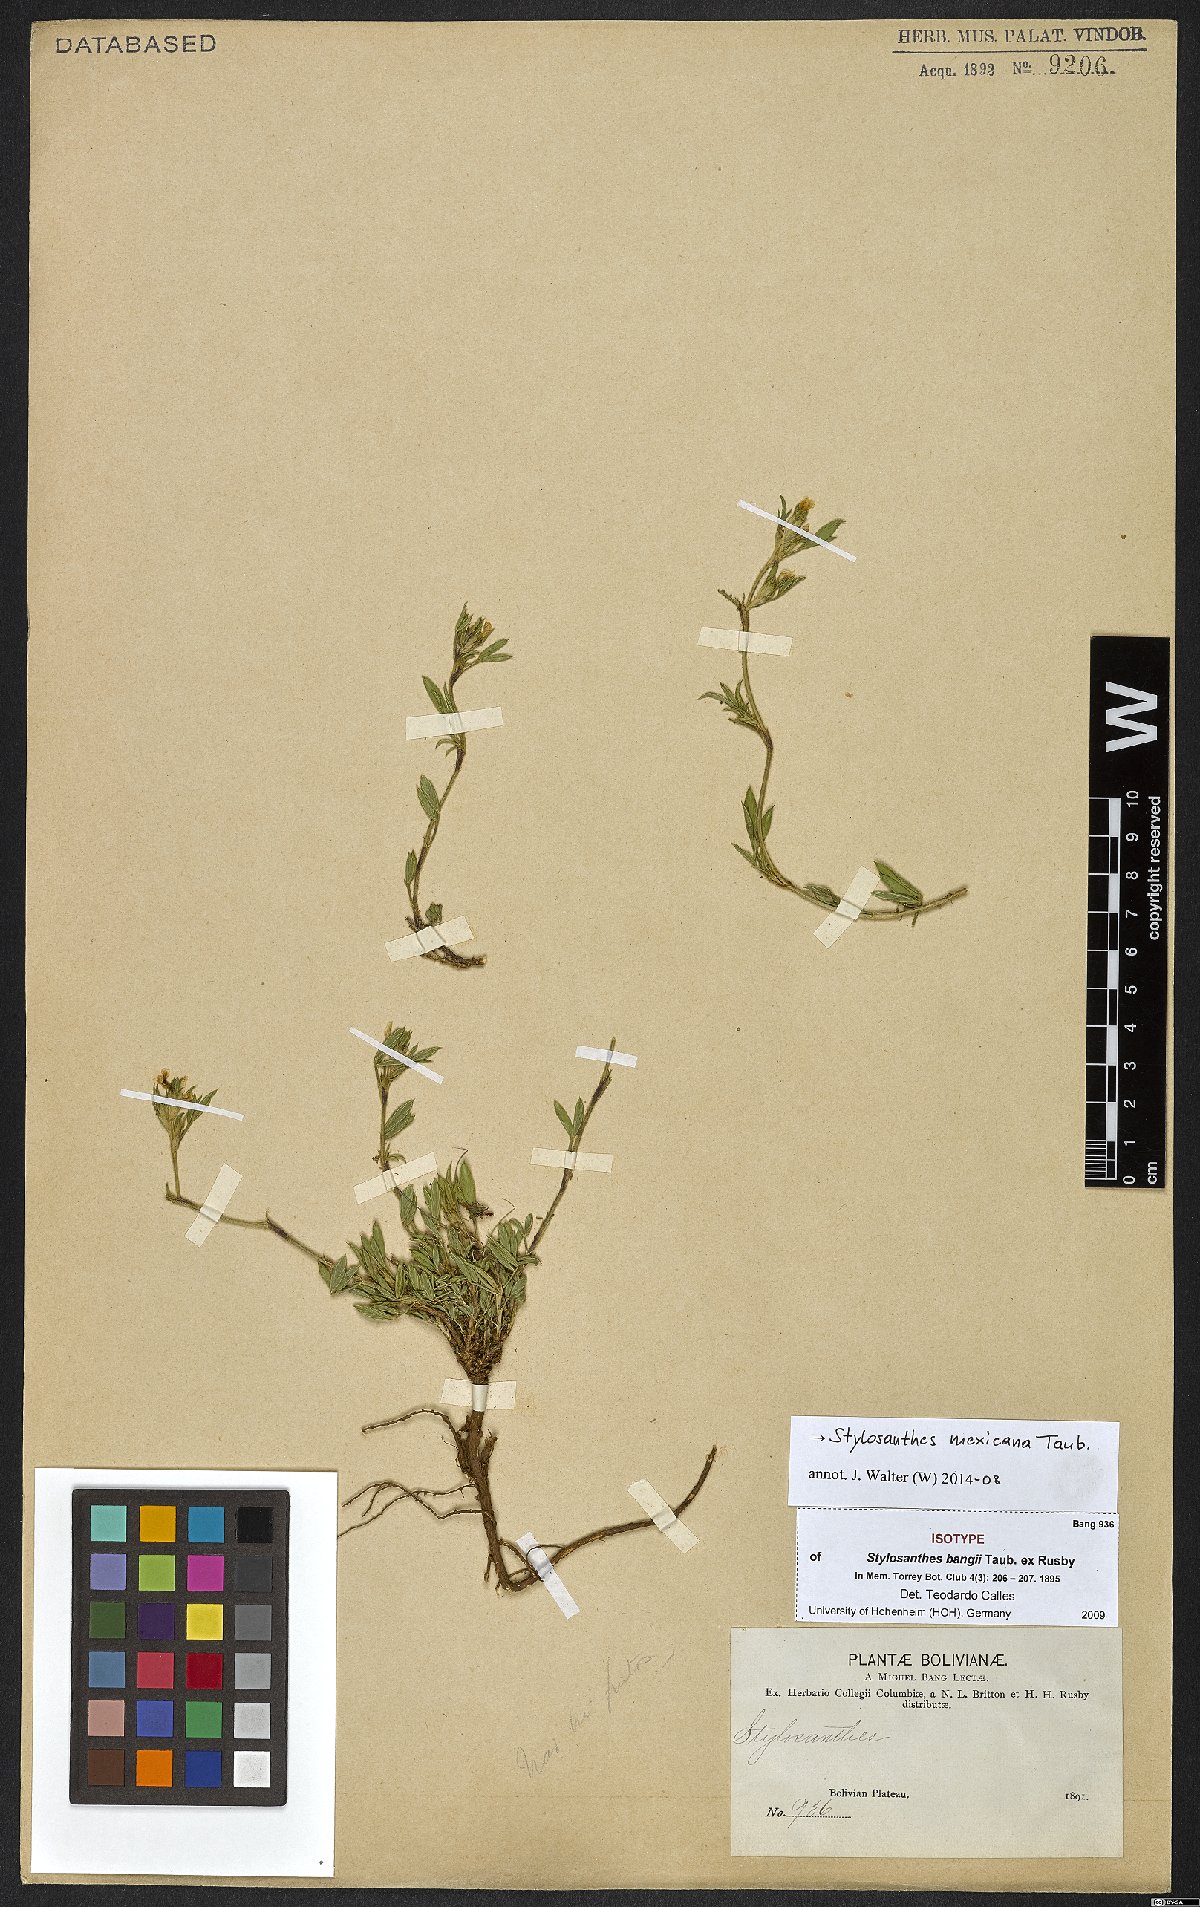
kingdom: Plantae
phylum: Tracheophyta
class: Magnoliopsida
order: Fabales
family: Fabaceae
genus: Stylosanthes
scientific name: Stylosanthes mexicana
